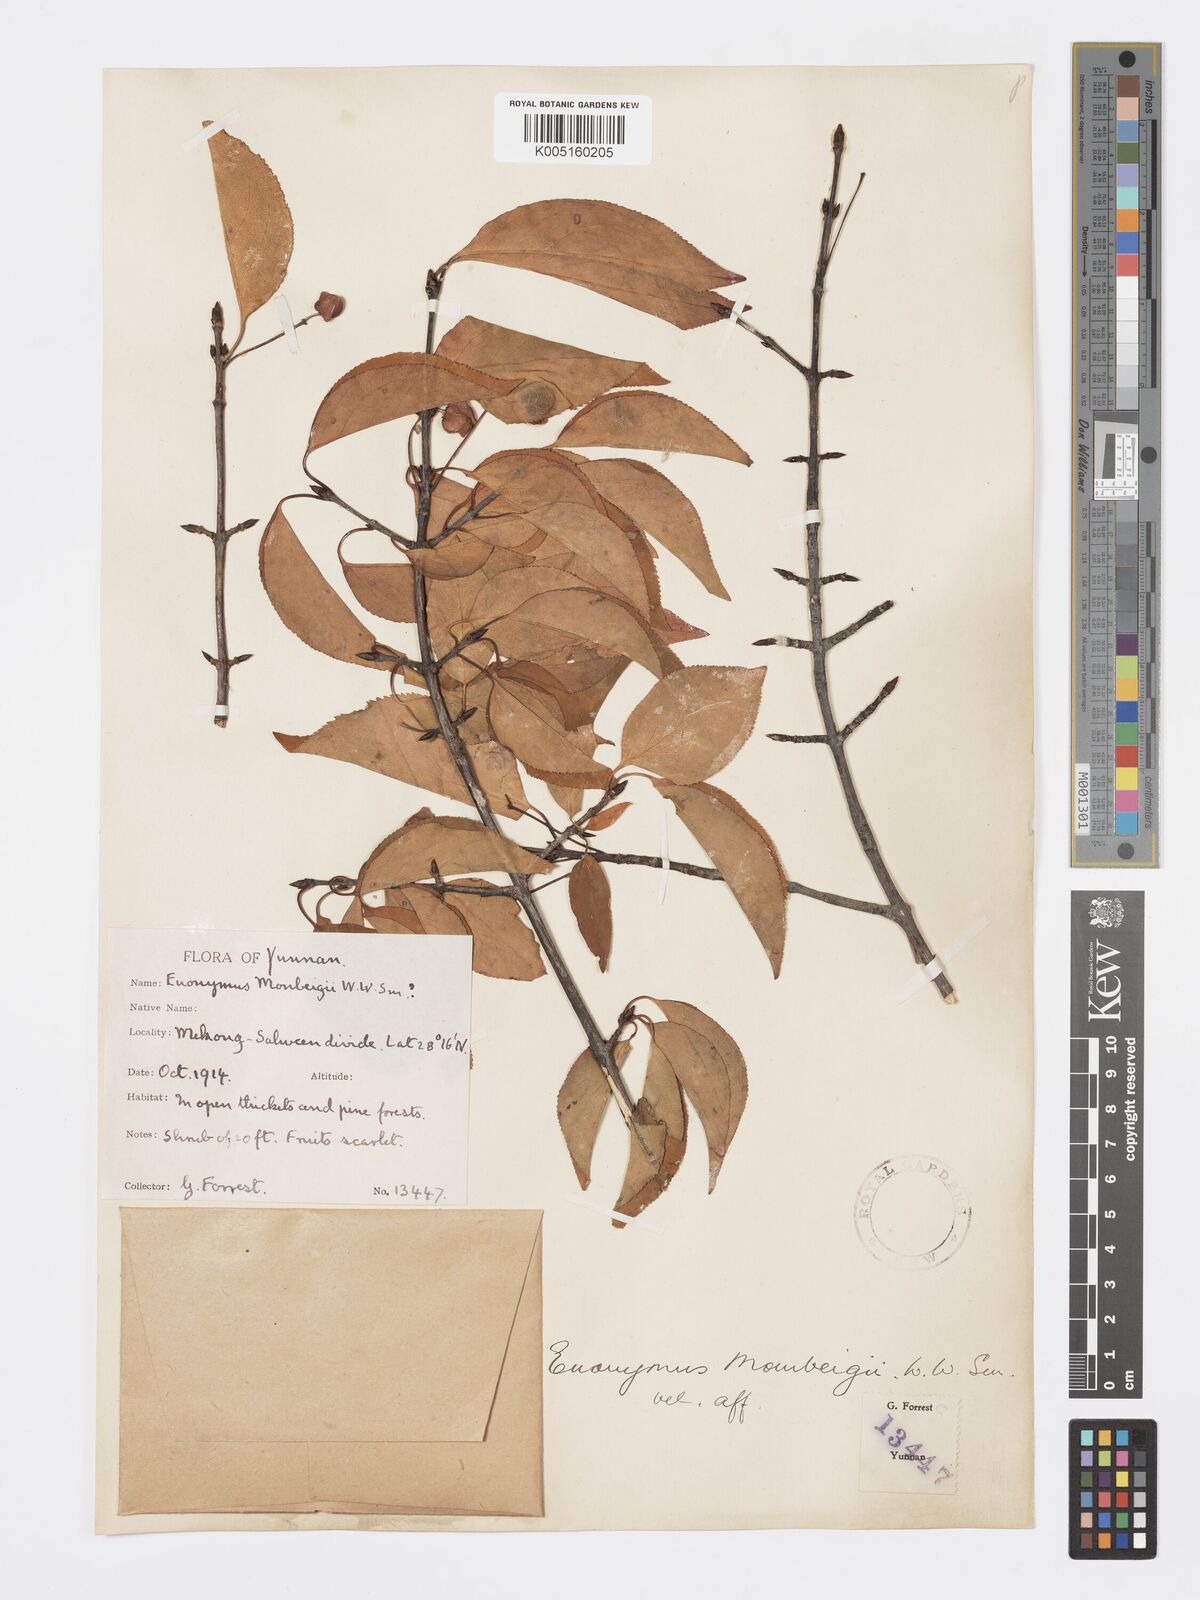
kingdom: Plantae
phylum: Tracheophyta
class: Magnoliopsida
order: Celastrales
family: Celastraceae
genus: Euonymus
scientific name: Euonymus sanguineus
